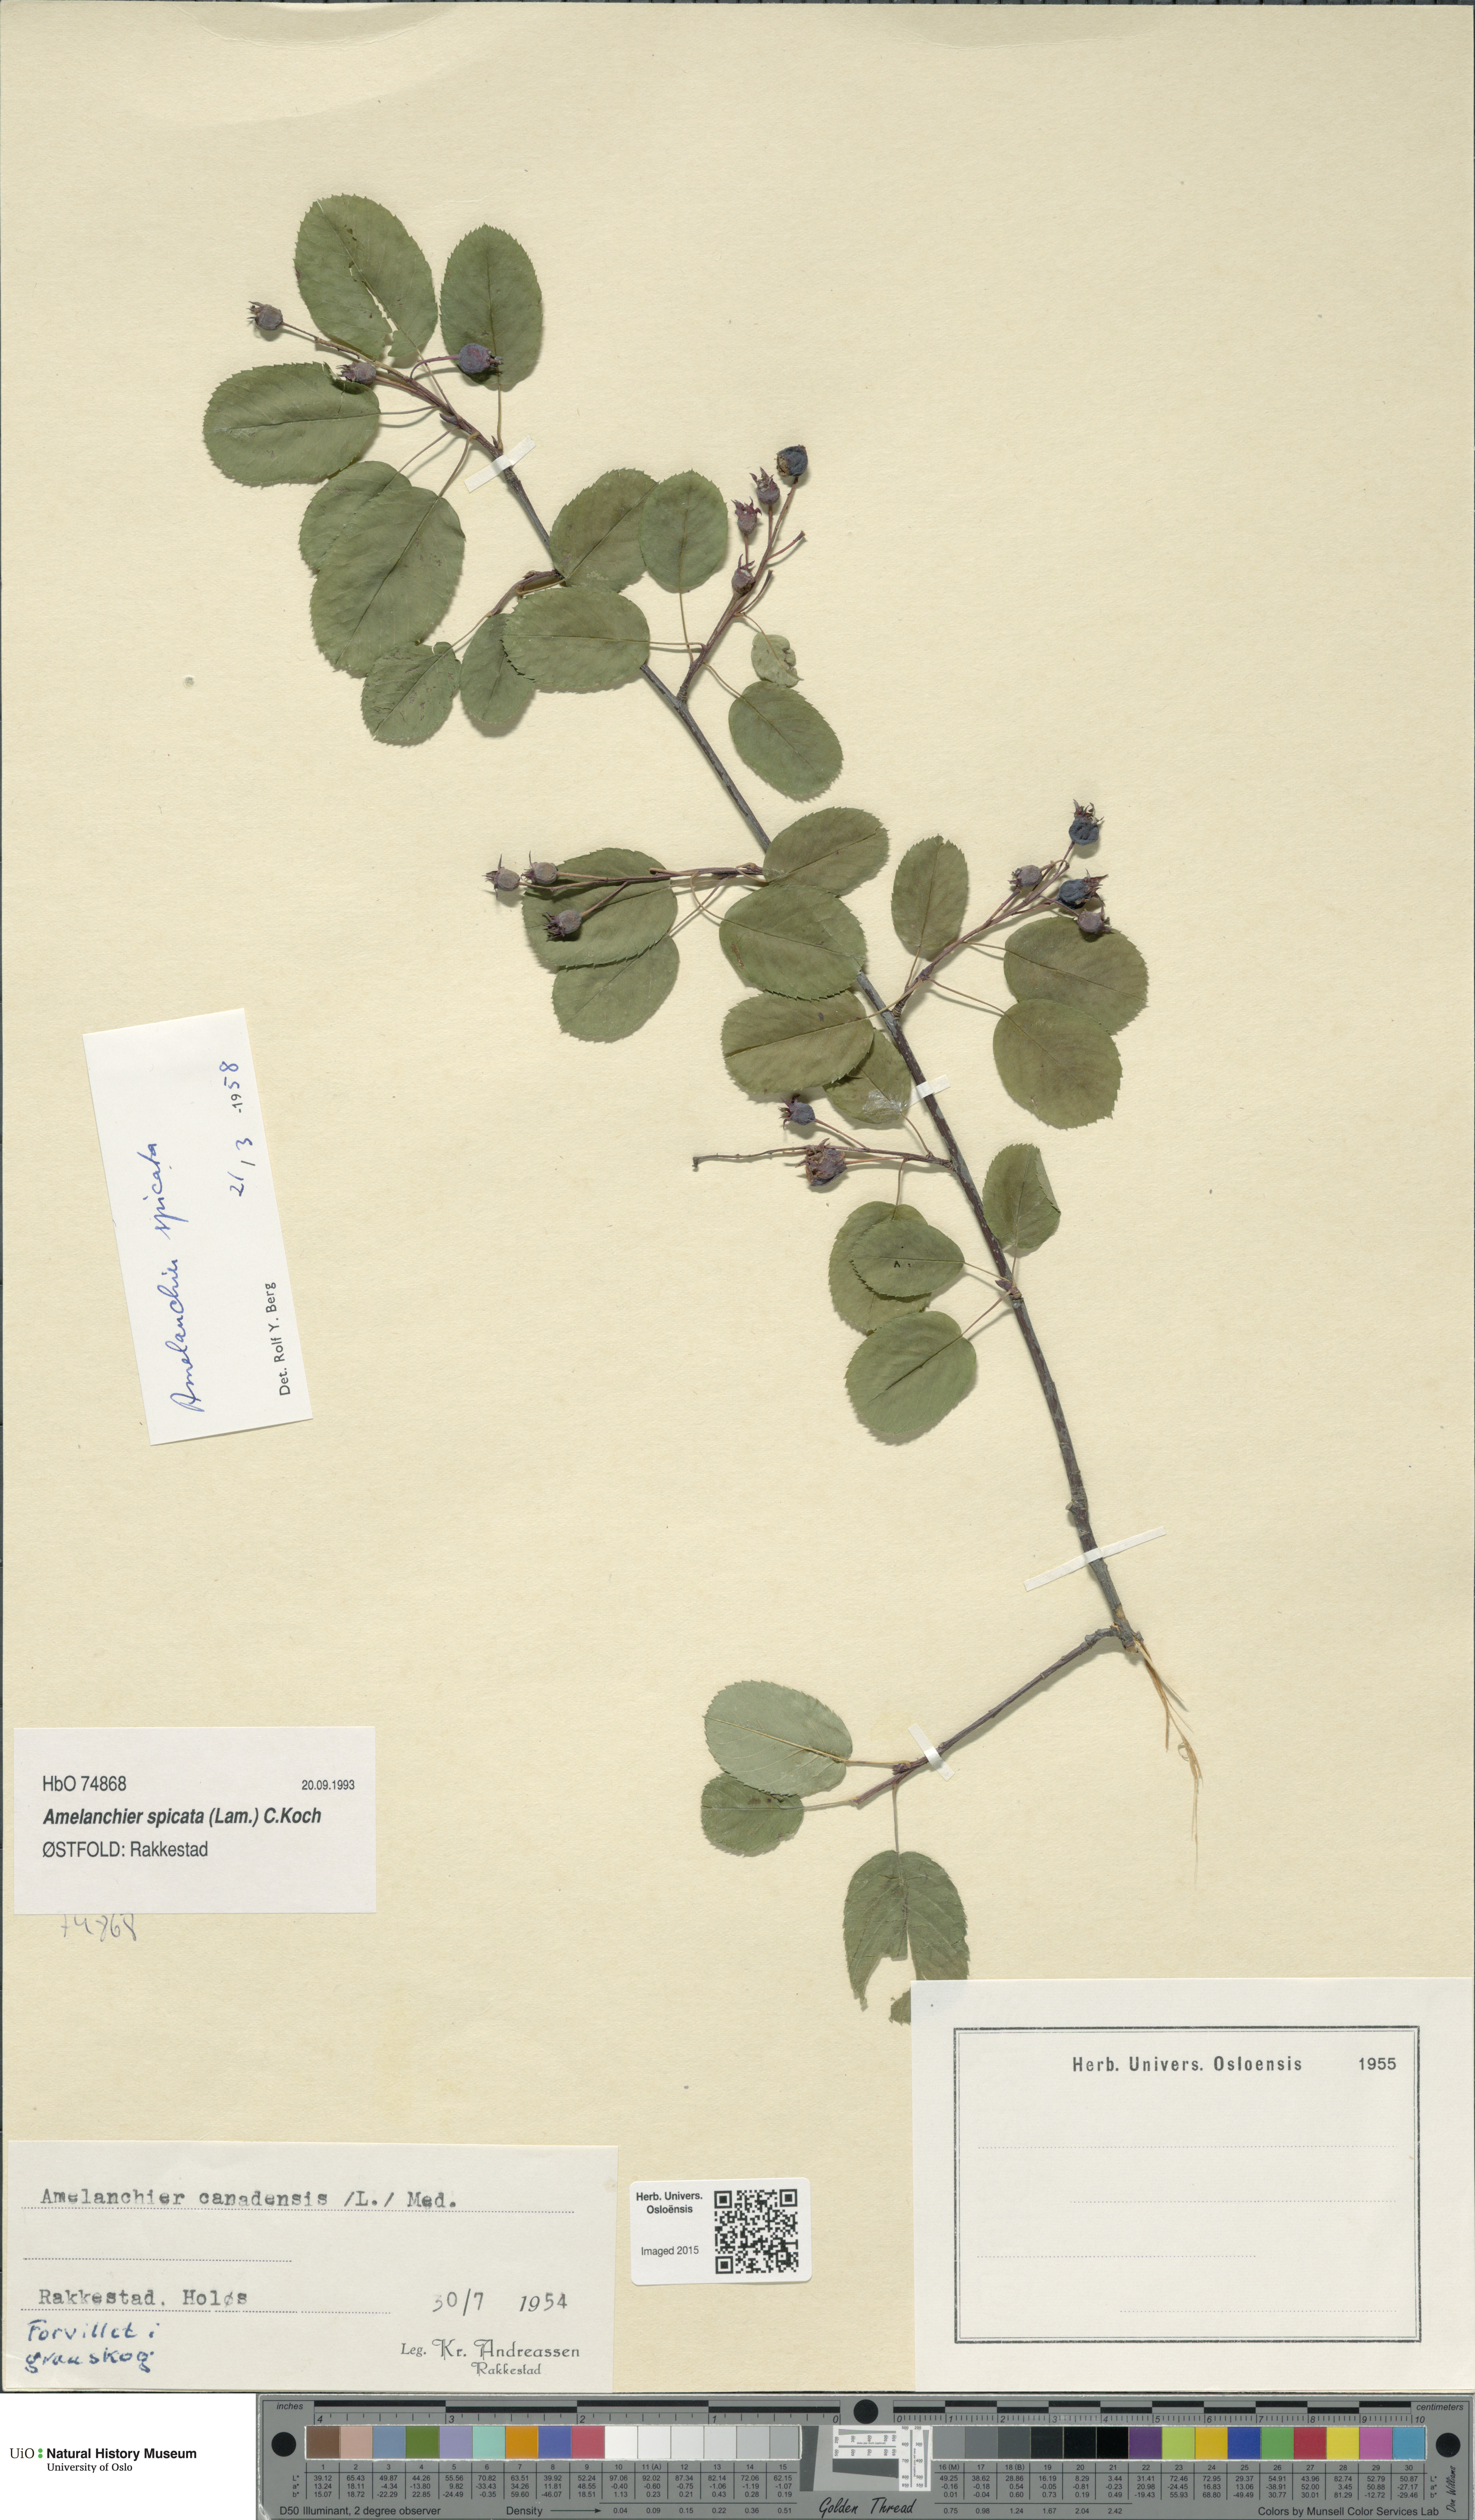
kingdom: Plantae
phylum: Tracheophyta
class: Magnoliopsida
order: Rosales
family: Rosaceae
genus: Amelanchier
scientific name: Amelanchier humilis
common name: Low juneberry
